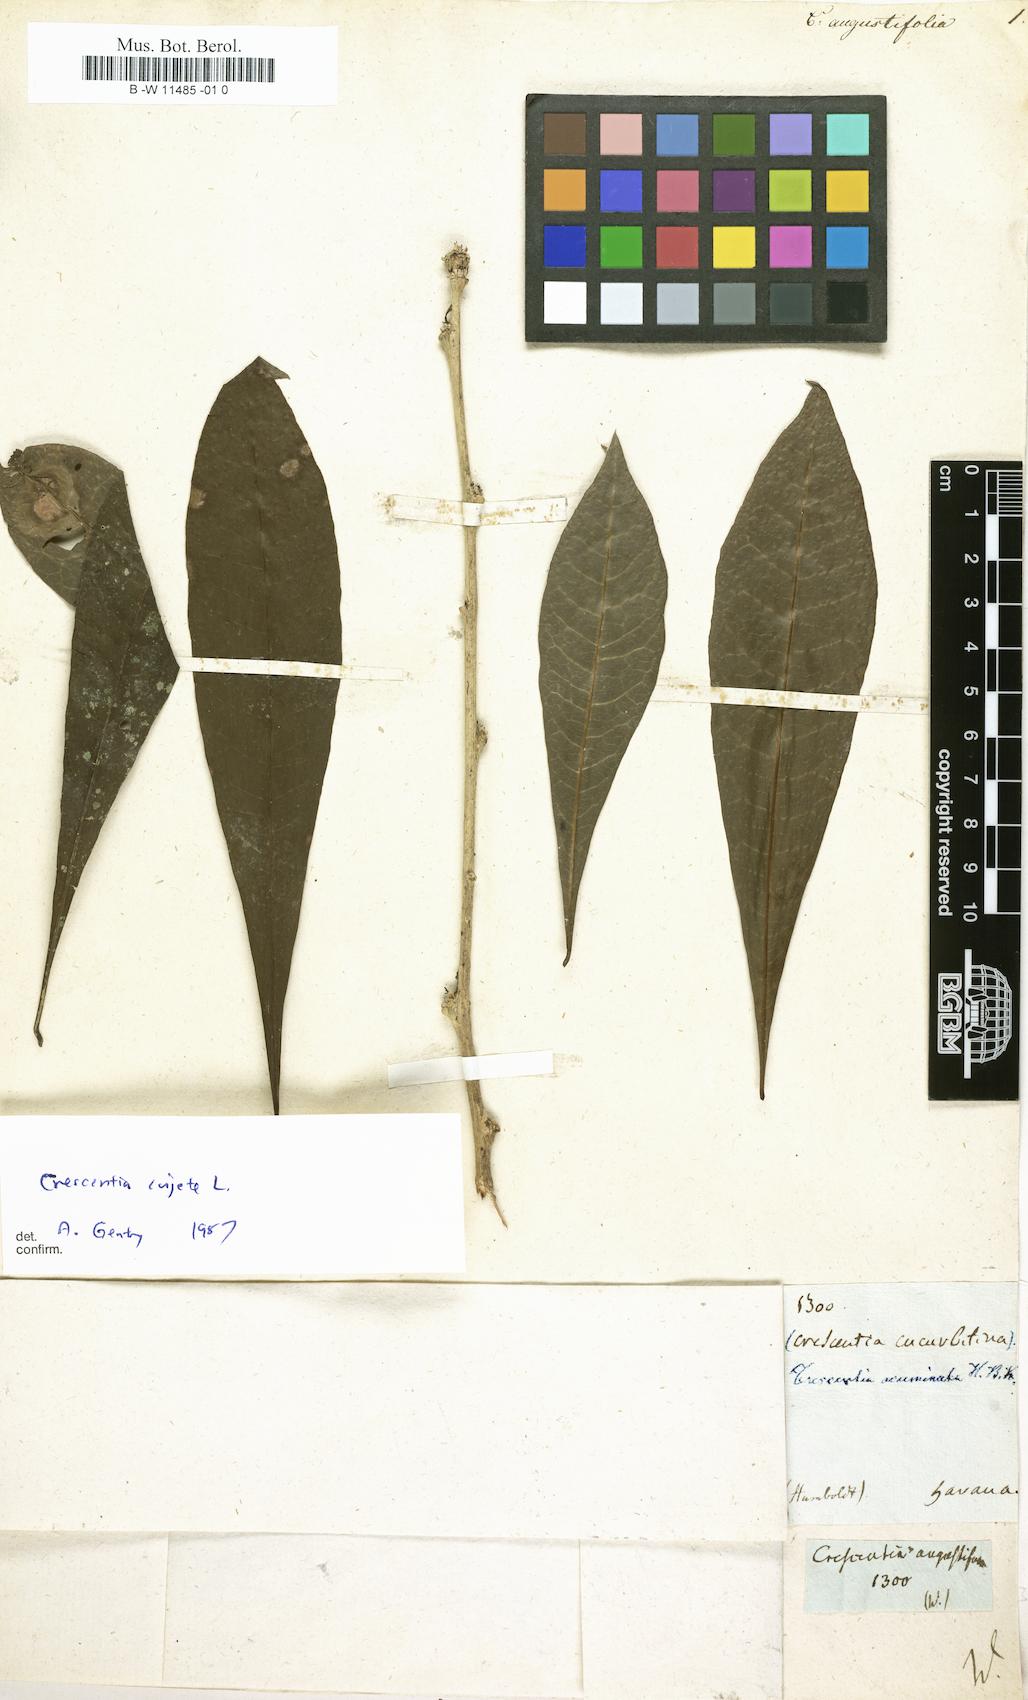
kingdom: Plantae
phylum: Tracheophyta
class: Magnoliopsida
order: Lamiales
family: Bignoniaceae
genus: Crescentia
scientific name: Crescentia cujete
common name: Calabash
